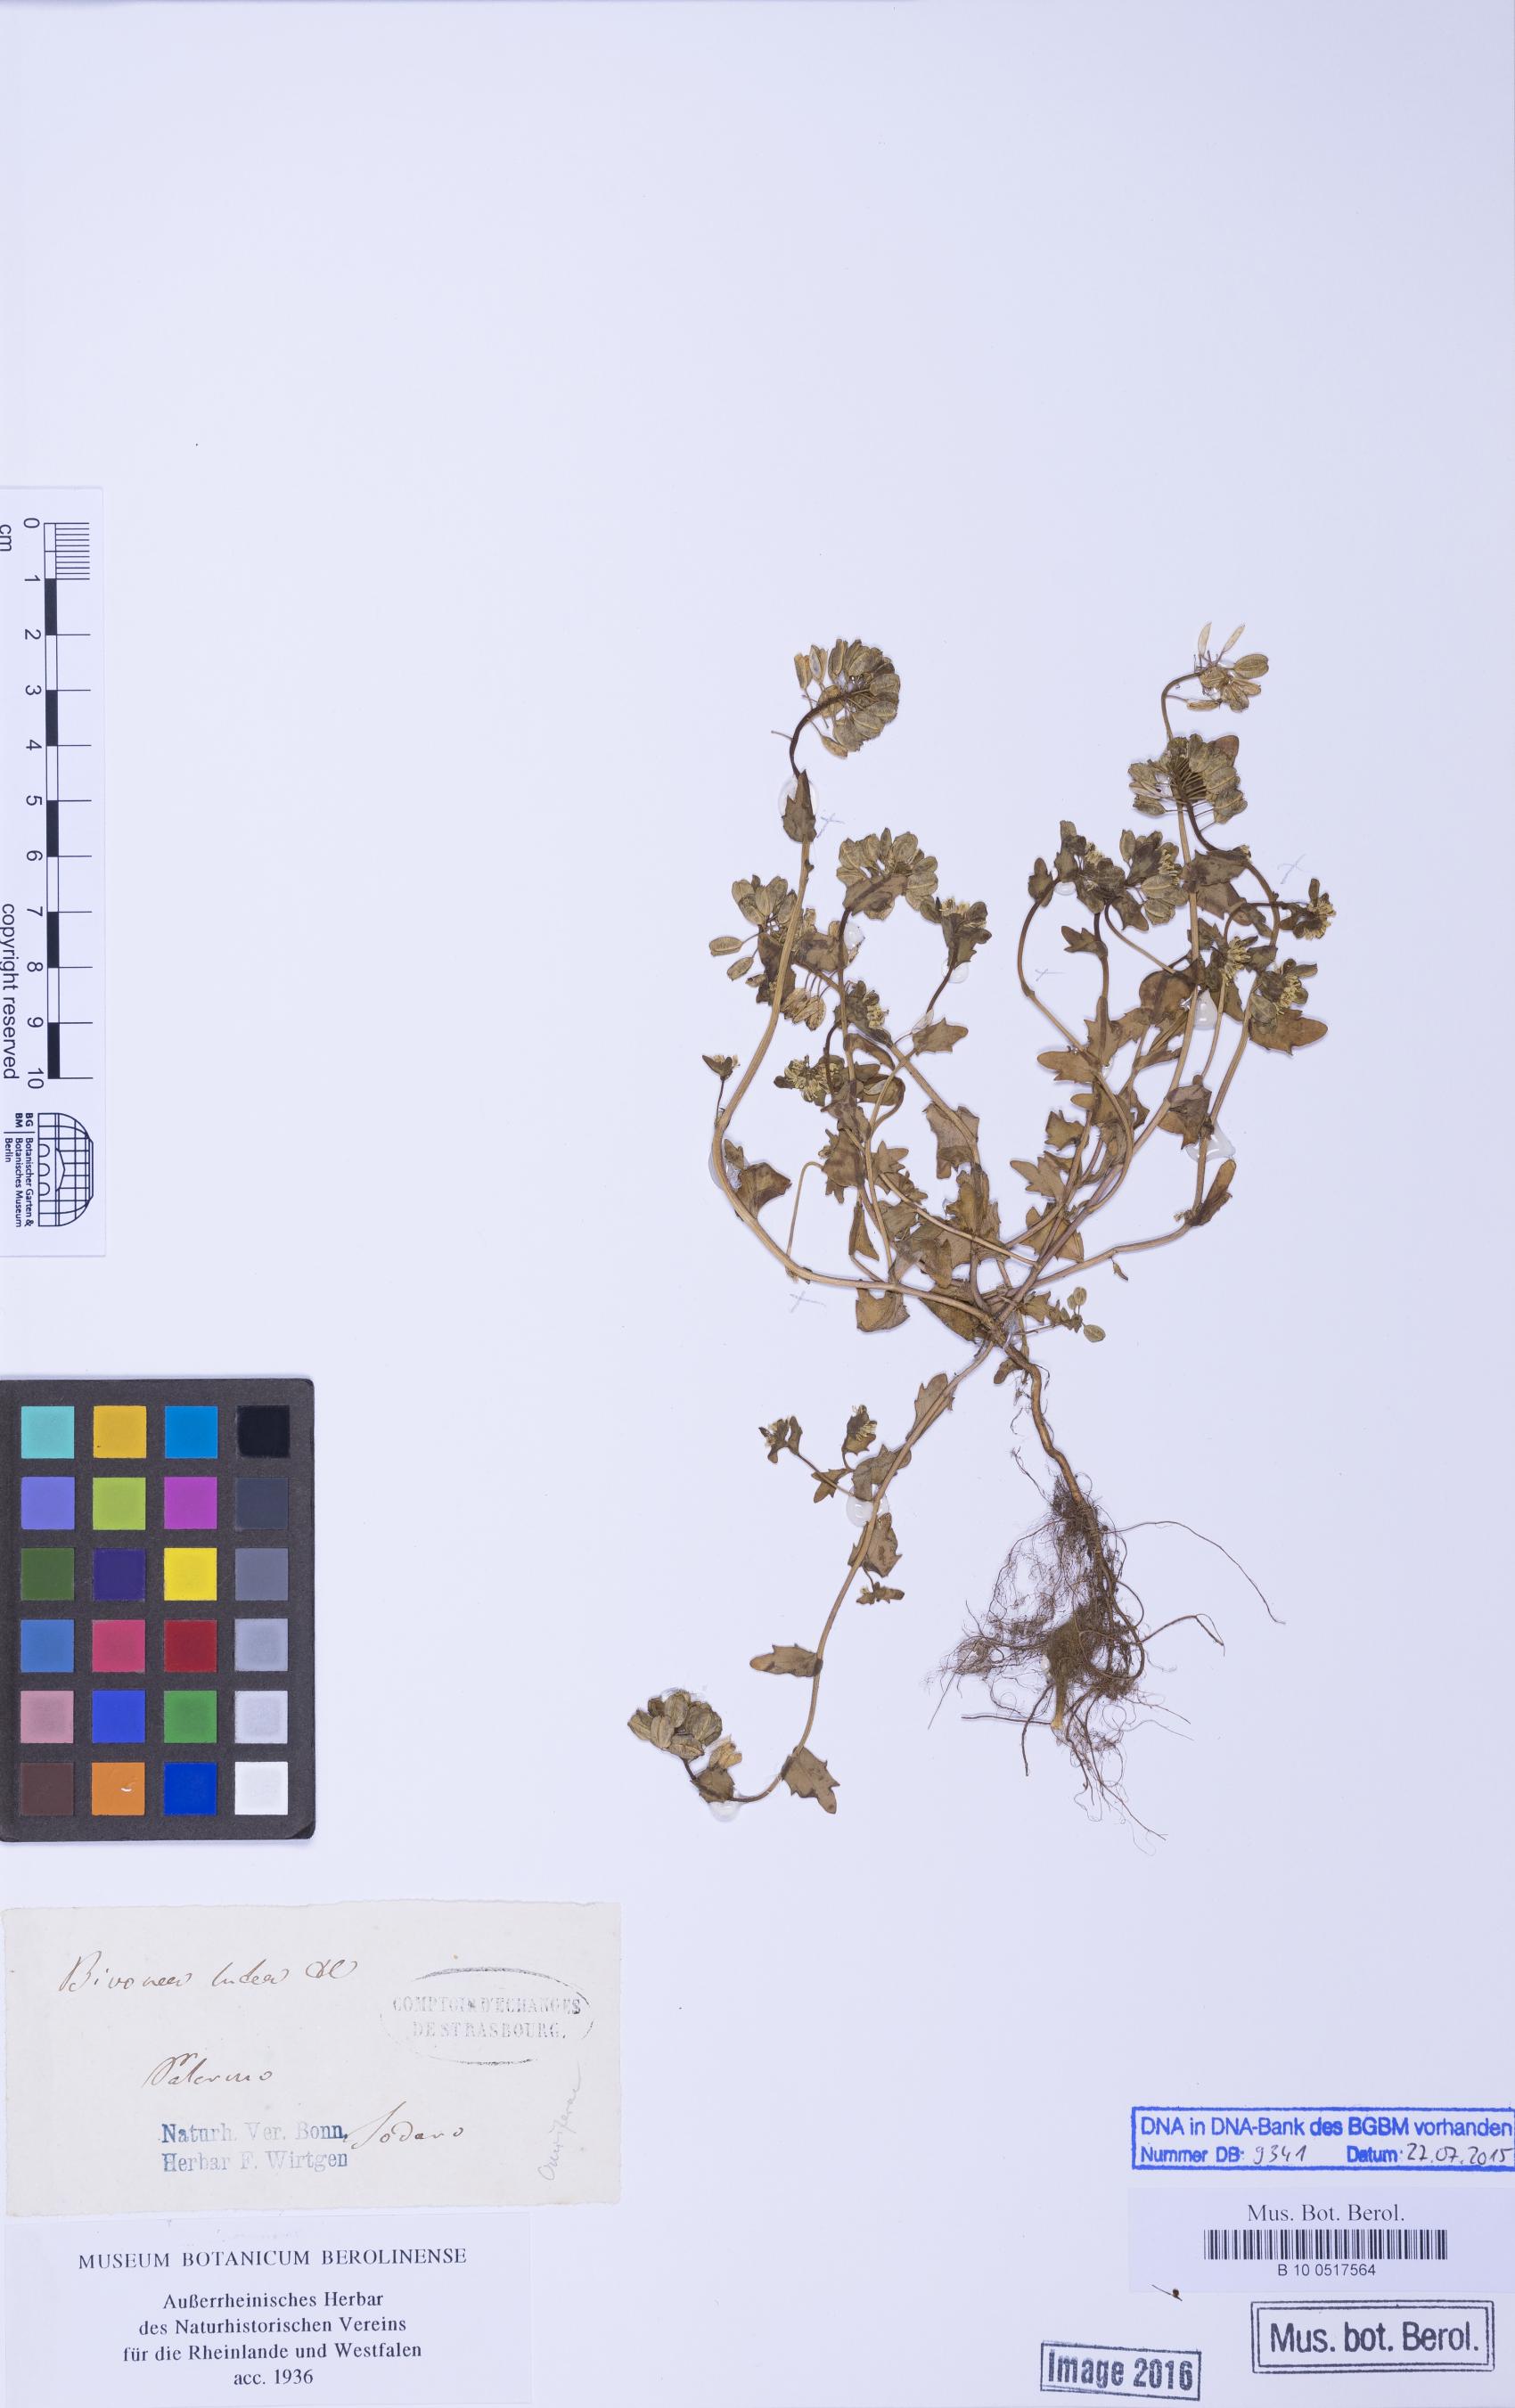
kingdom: Plantae
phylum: Tracheophyta
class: Magnoliopsida
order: Brassicales
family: Brassicaceae
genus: Bivonaea
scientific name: Bivonaea lutea
